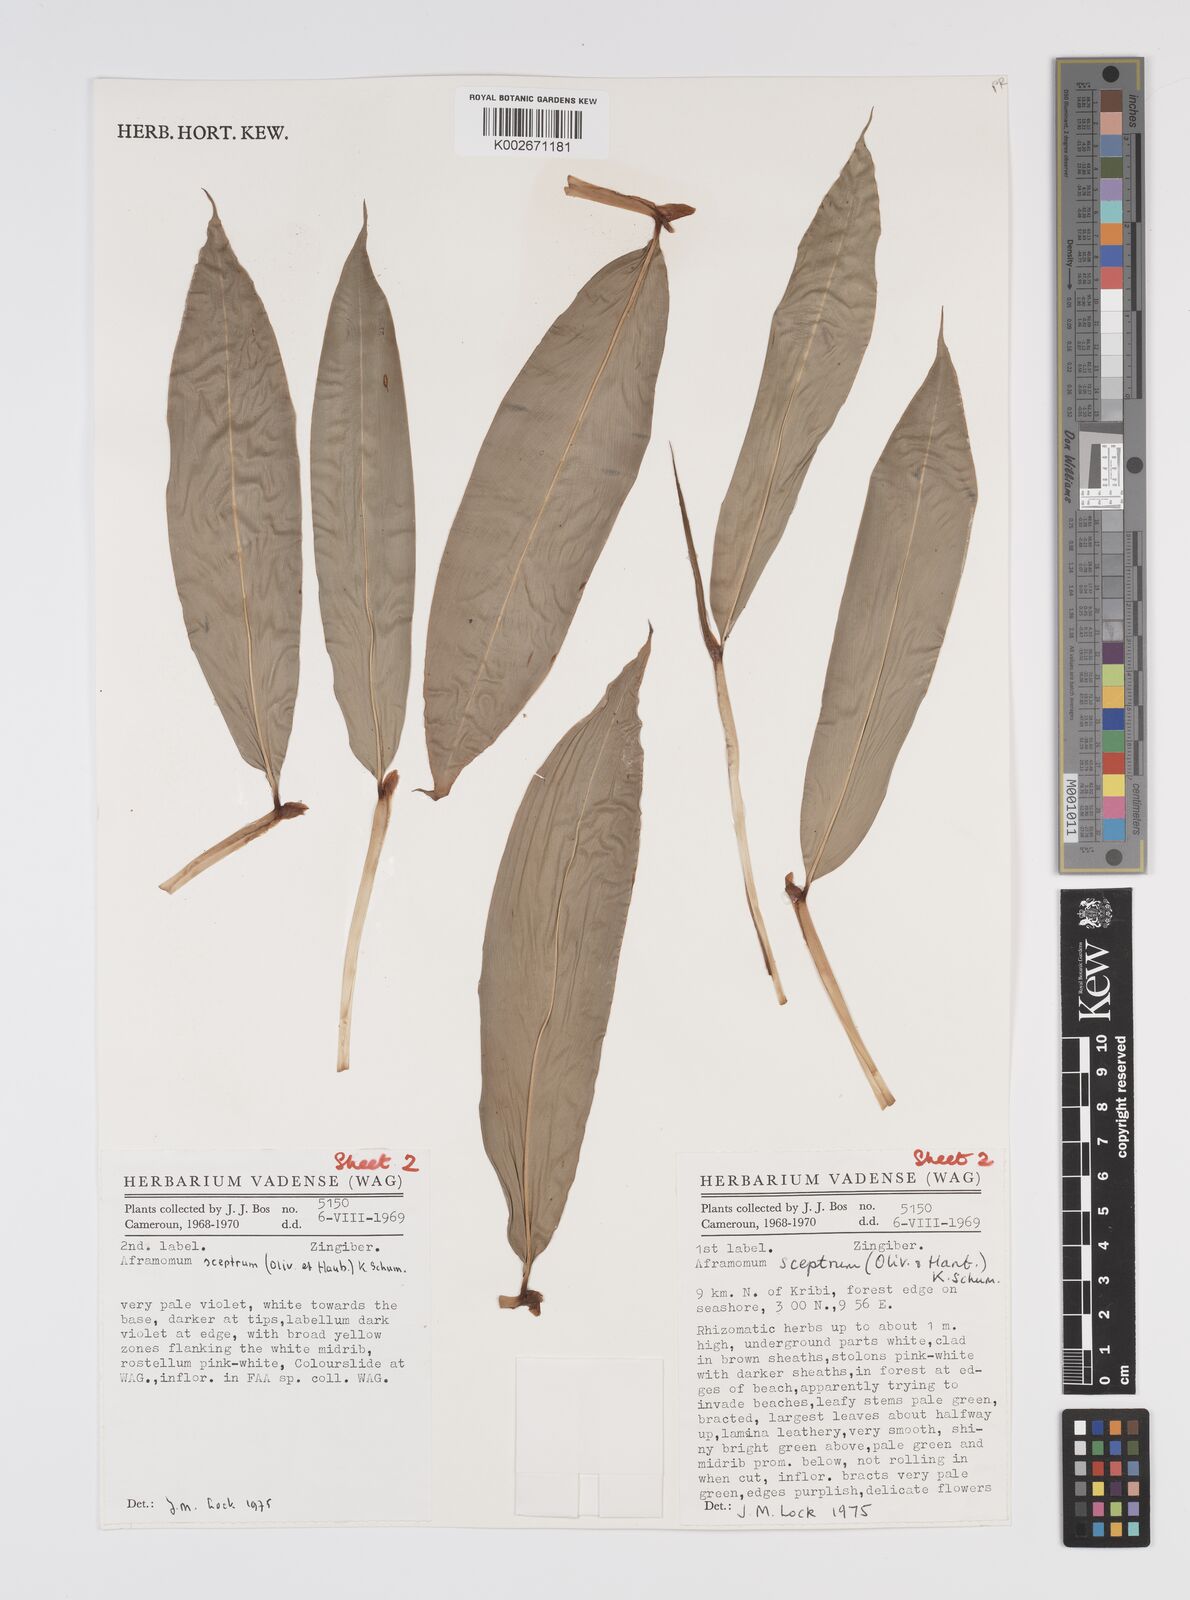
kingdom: Plantae
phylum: Tracheophyta
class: Liliopsida
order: Zingiberales
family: Zingiberaceae
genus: Aframomum
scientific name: Aframomum cereum
